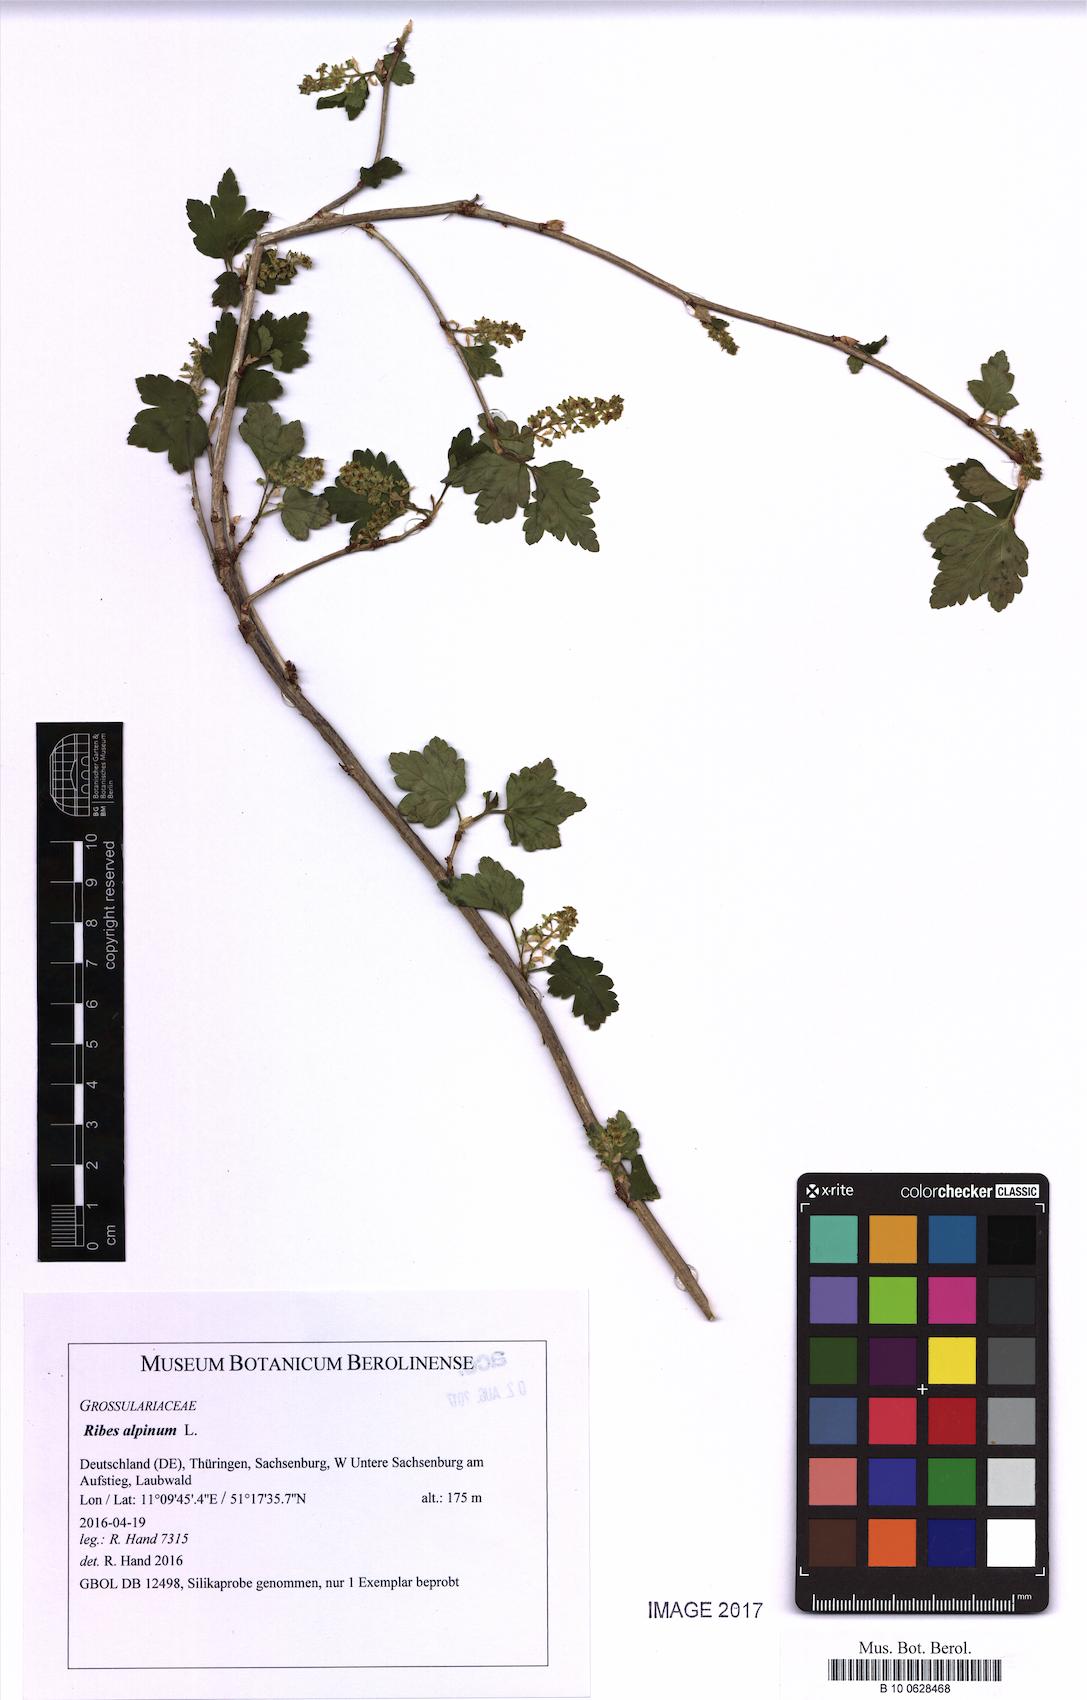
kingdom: Plantae
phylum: Tracheophyta
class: Magnoliopsida
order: Saxifragales
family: Grossulariaceae
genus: Ribes
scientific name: Ribes alpinum
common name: Alpine currant
